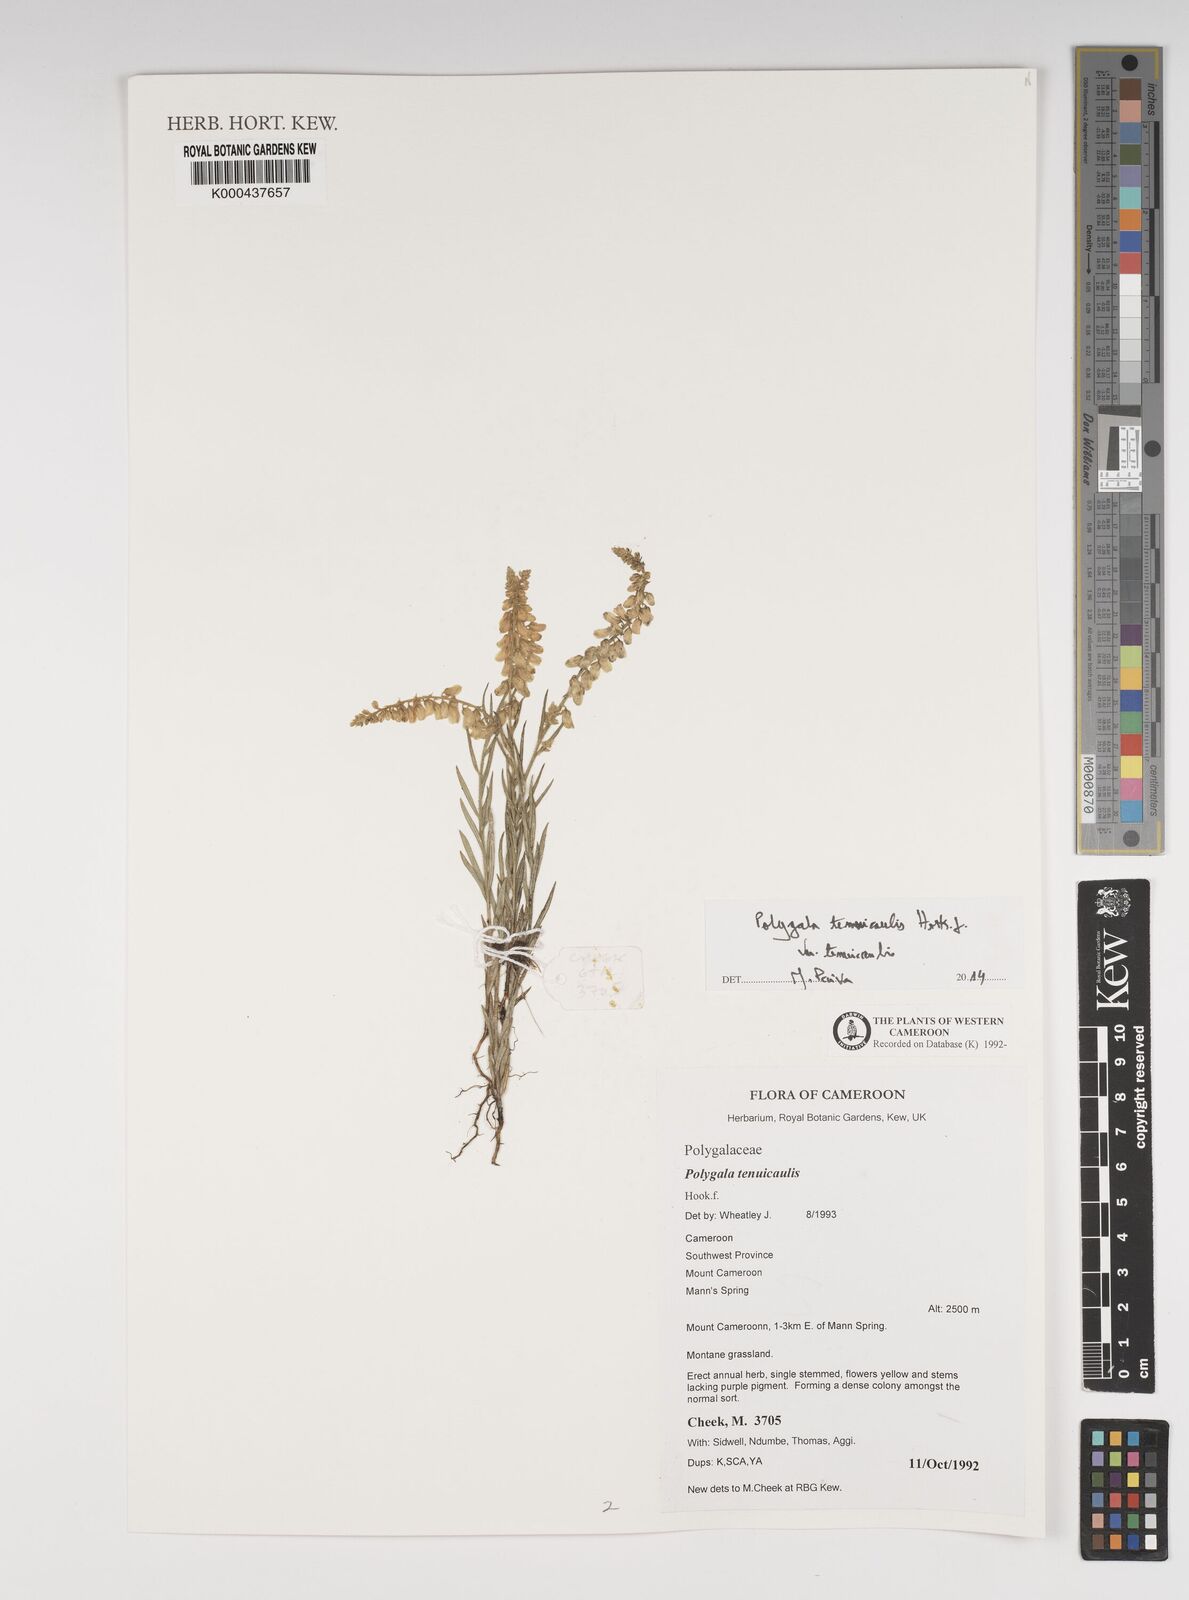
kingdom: Plantae
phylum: Tracheophyta
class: Magnoliopsida
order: Fabales
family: Polygalaceae
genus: Polygala
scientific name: Polygala tenuicaulis
